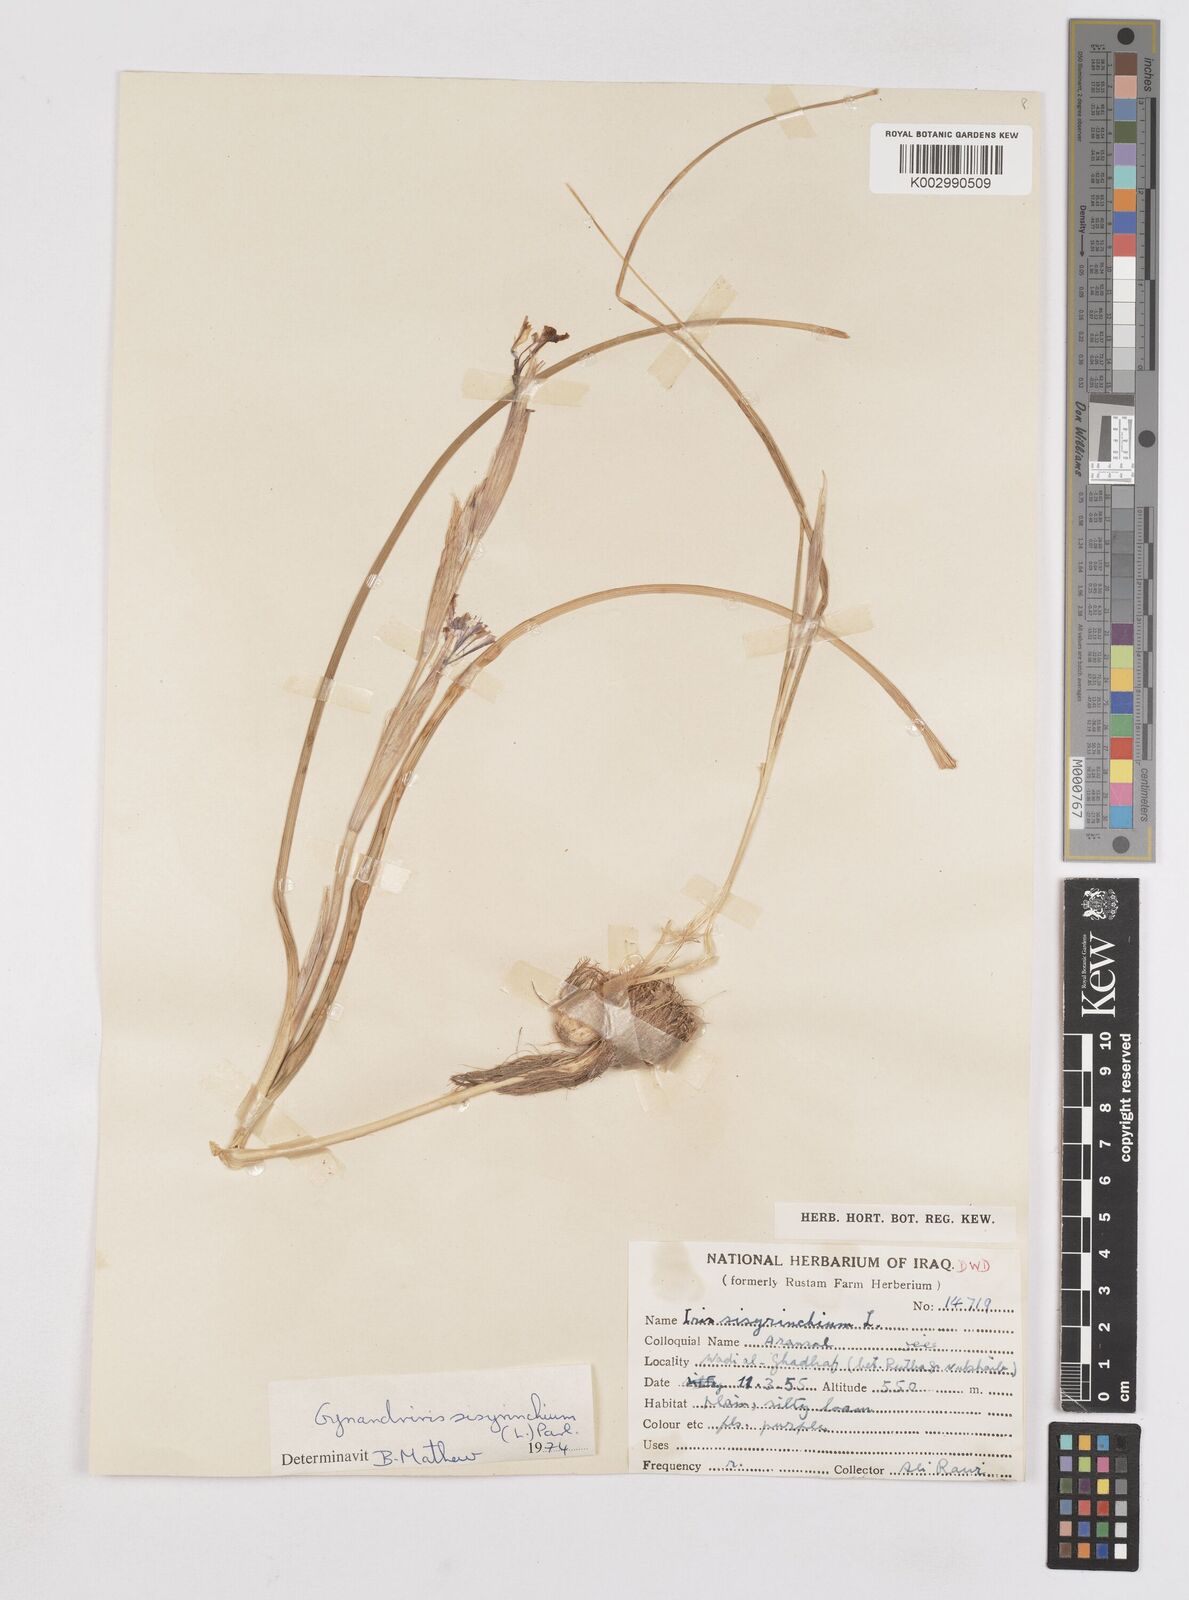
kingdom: Plantae
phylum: Tracheophyta
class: Liliopsida
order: Asparagales
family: Iridaceae
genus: Moraea
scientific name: Moraea sisyrinchium
